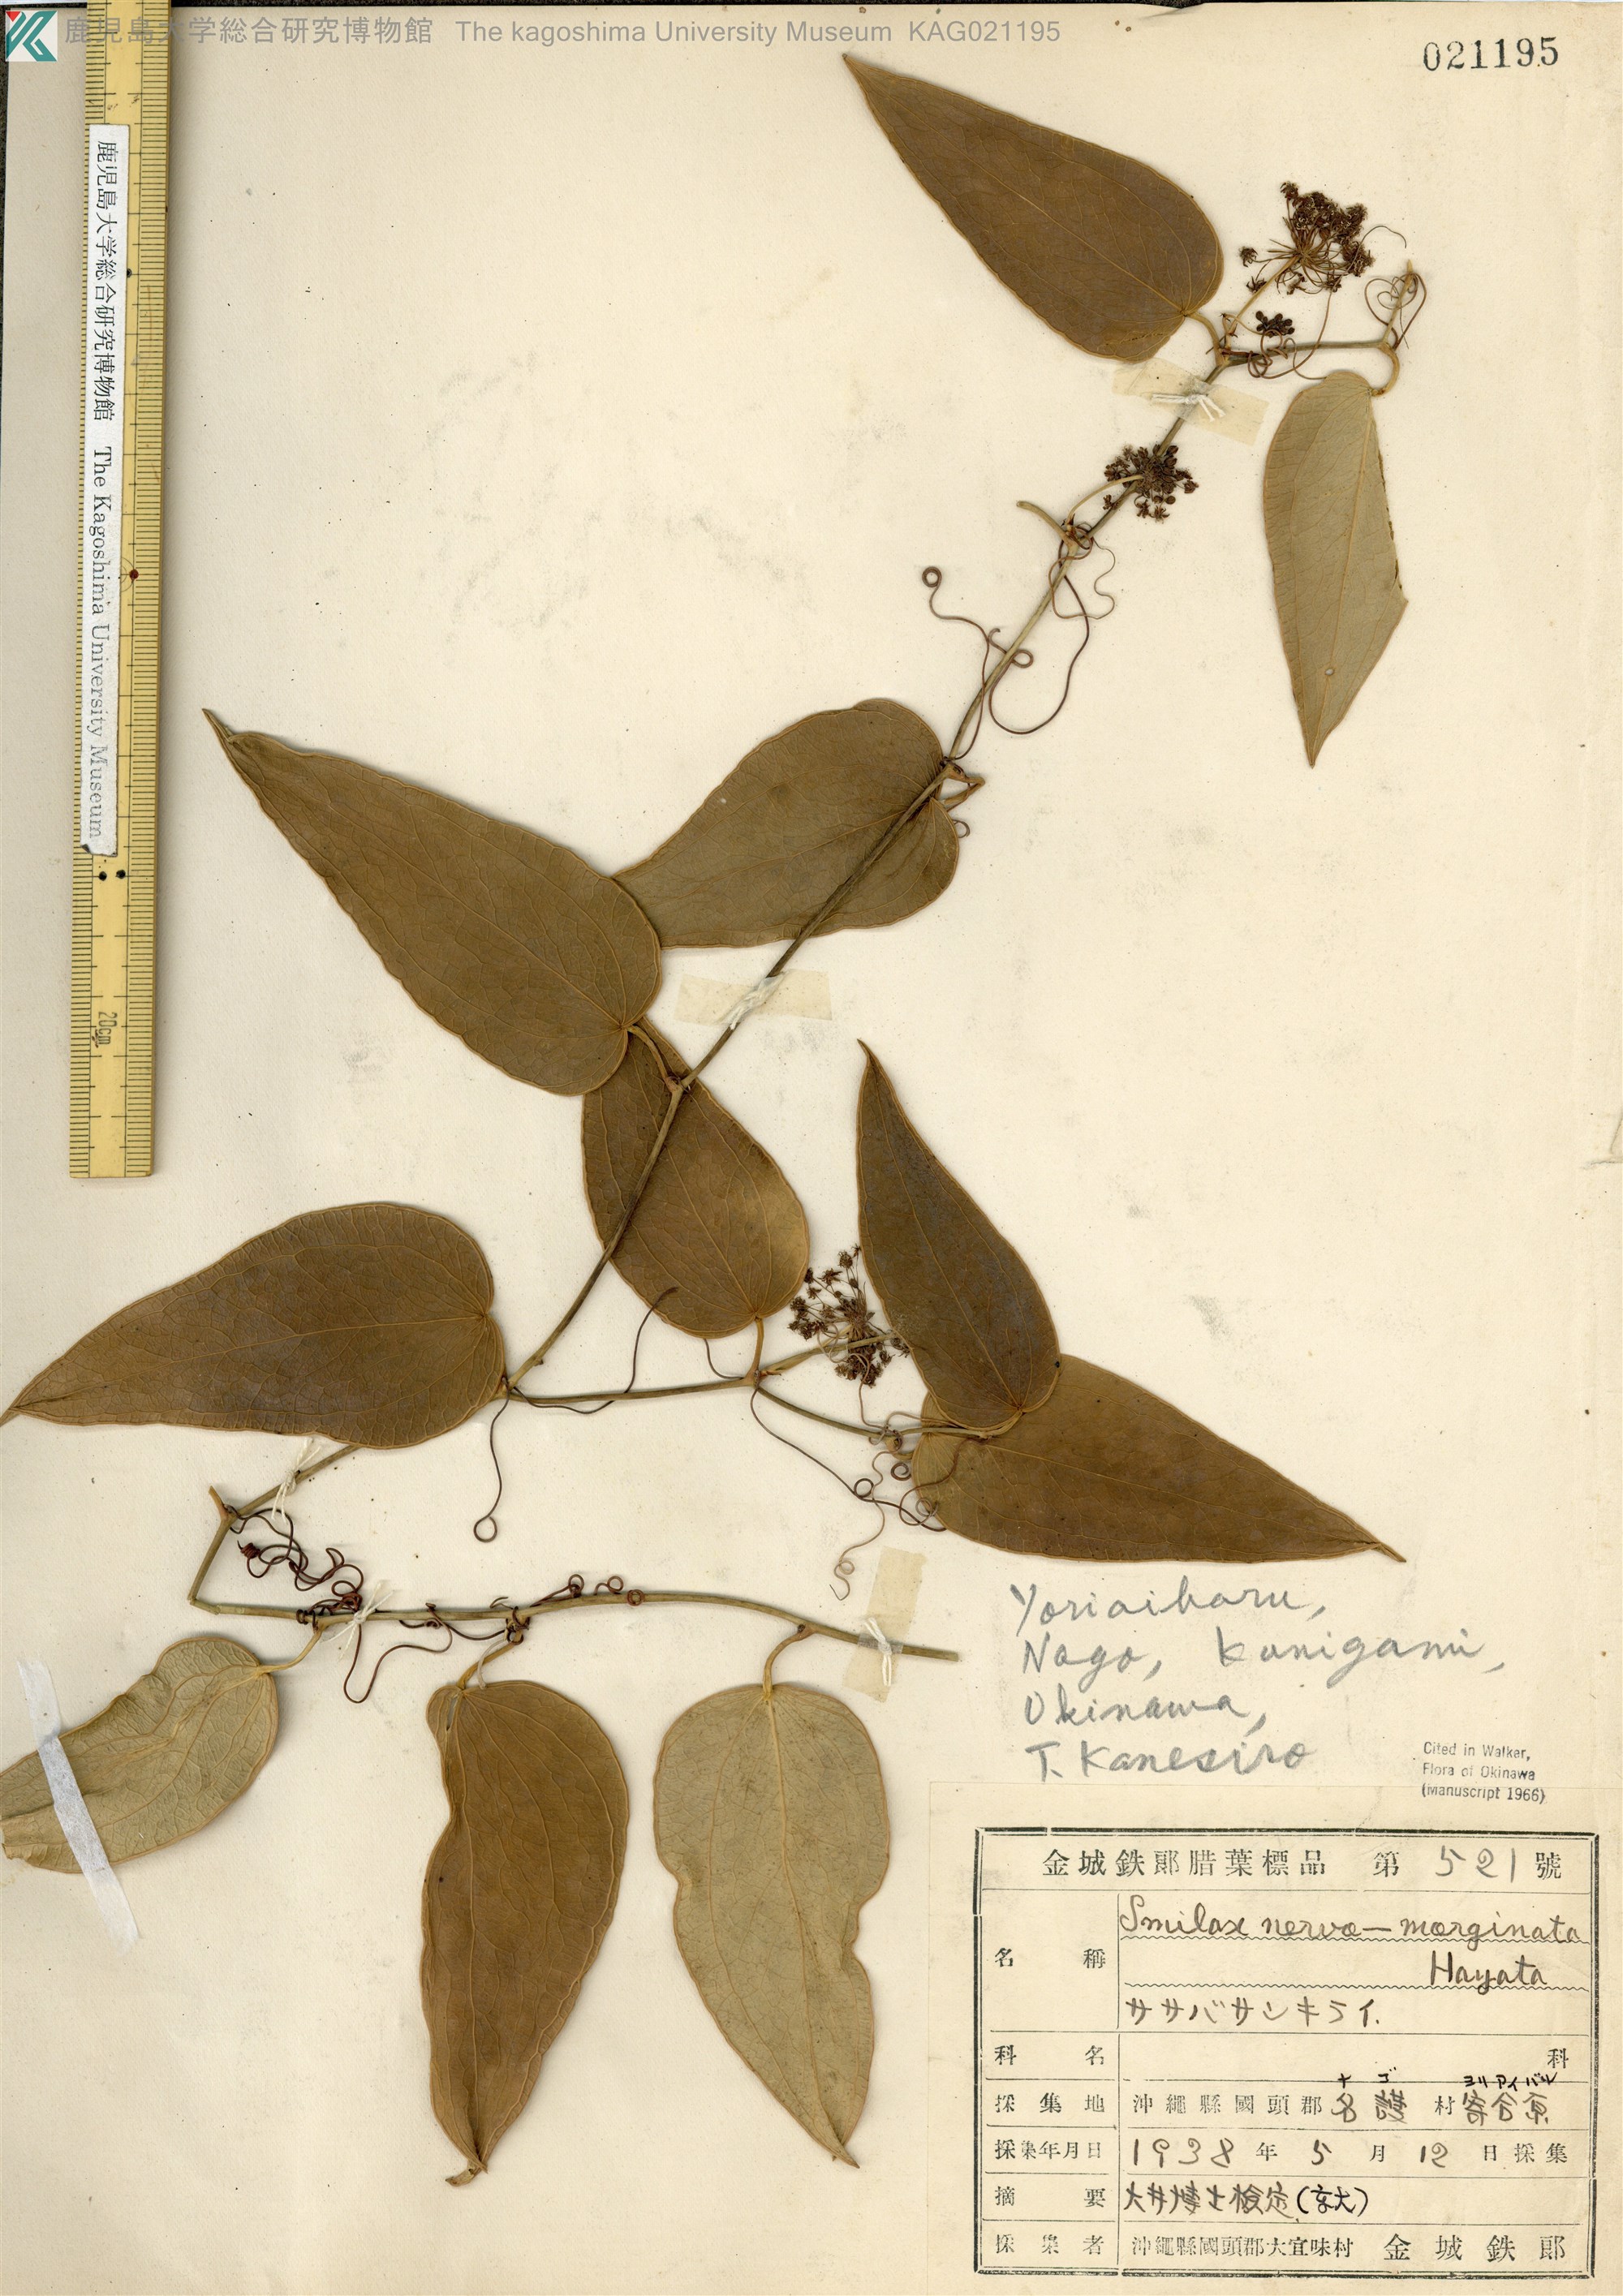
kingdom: Plantae
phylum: Tracheophyta
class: Liliopsida
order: Liliales
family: Smilacaceae
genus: Smilax
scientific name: Smilax nervomarginata
